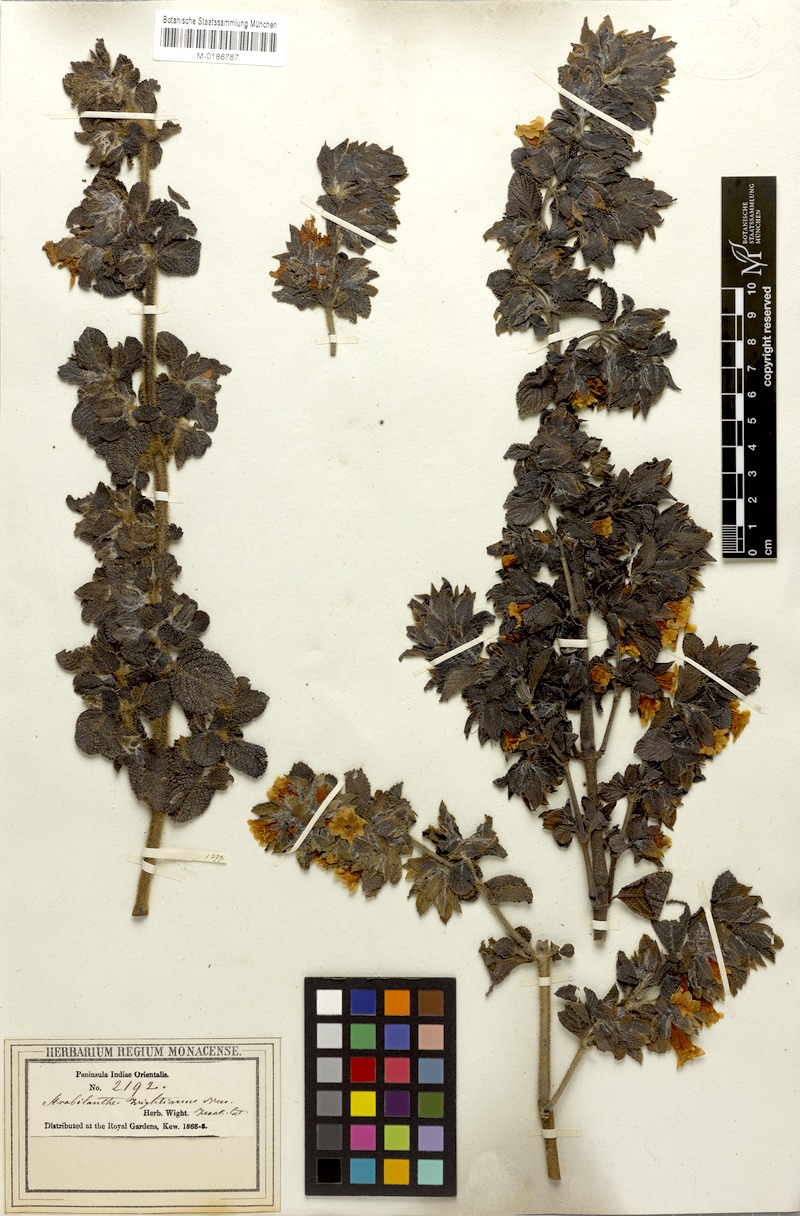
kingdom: Plantae
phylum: Tracheophyta
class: Magnoliopsida
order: Lamiales
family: Acanthaceae
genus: Strobilanthes
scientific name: Strobilanthes wightiana
